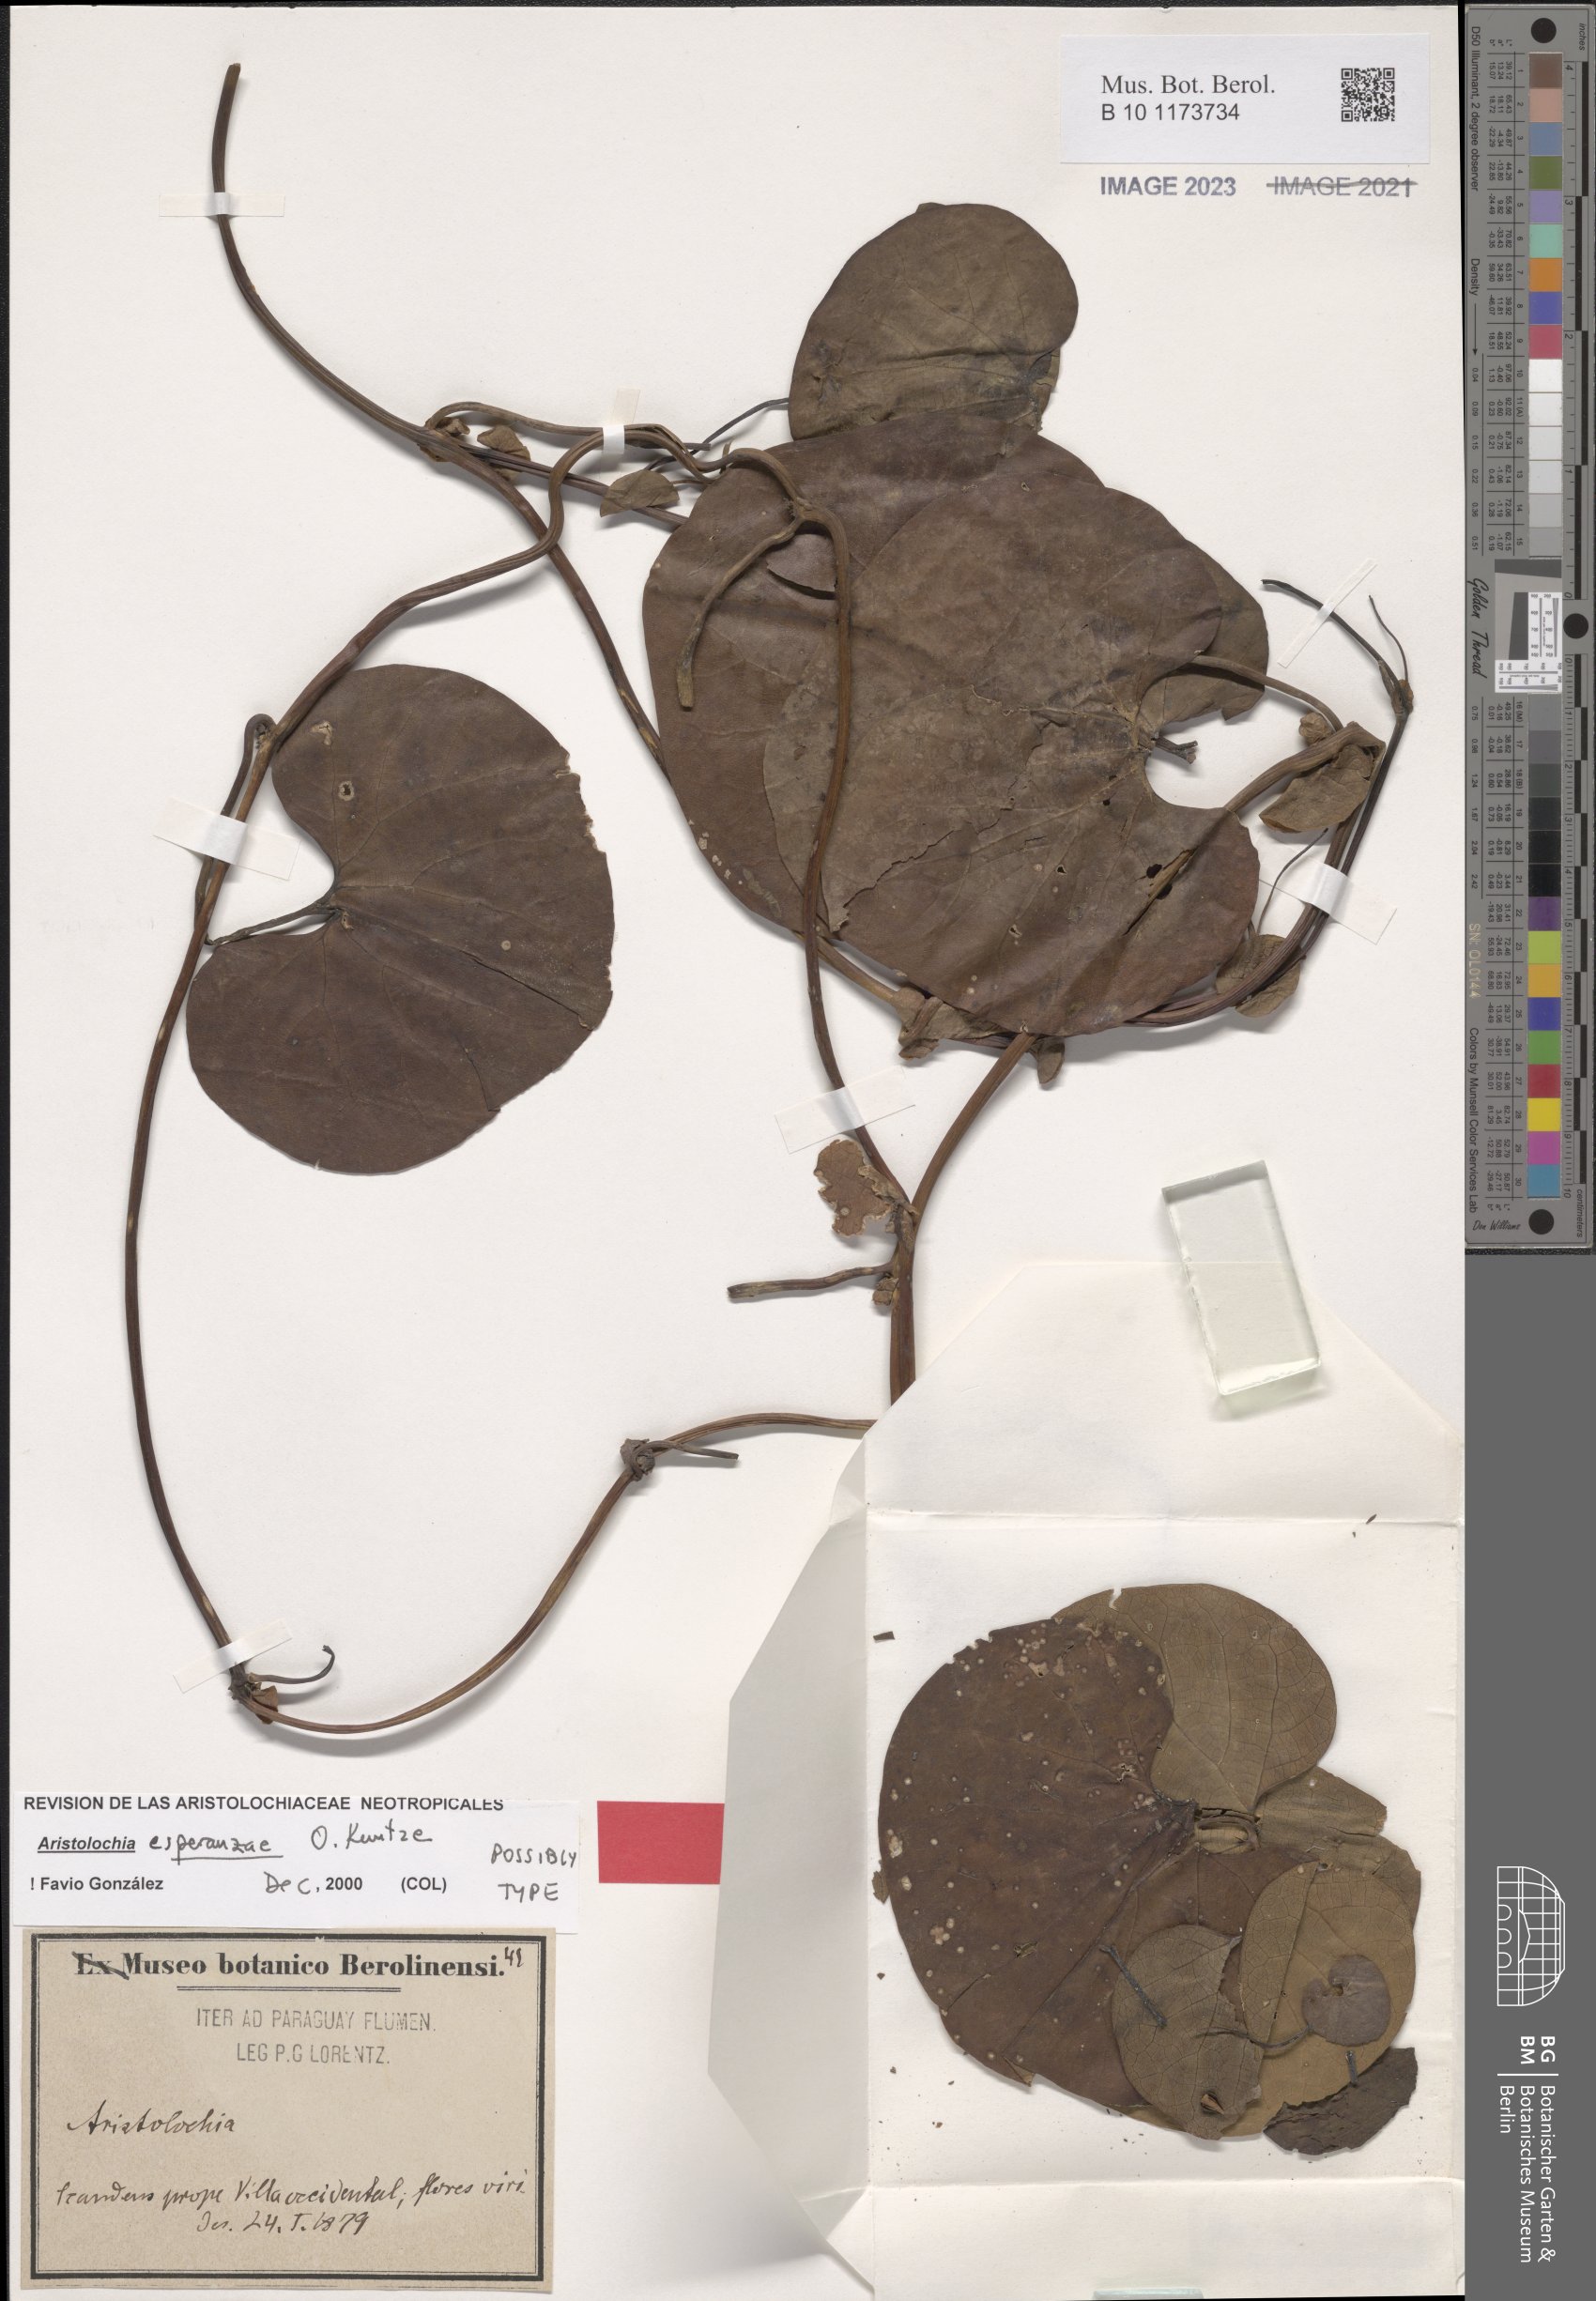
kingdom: Plantae
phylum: Tracheophyta
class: Magnoliopsida
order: Piperales
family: Aristolochiaceae
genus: Aristolochia
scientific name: Aristolochia esperanzae
